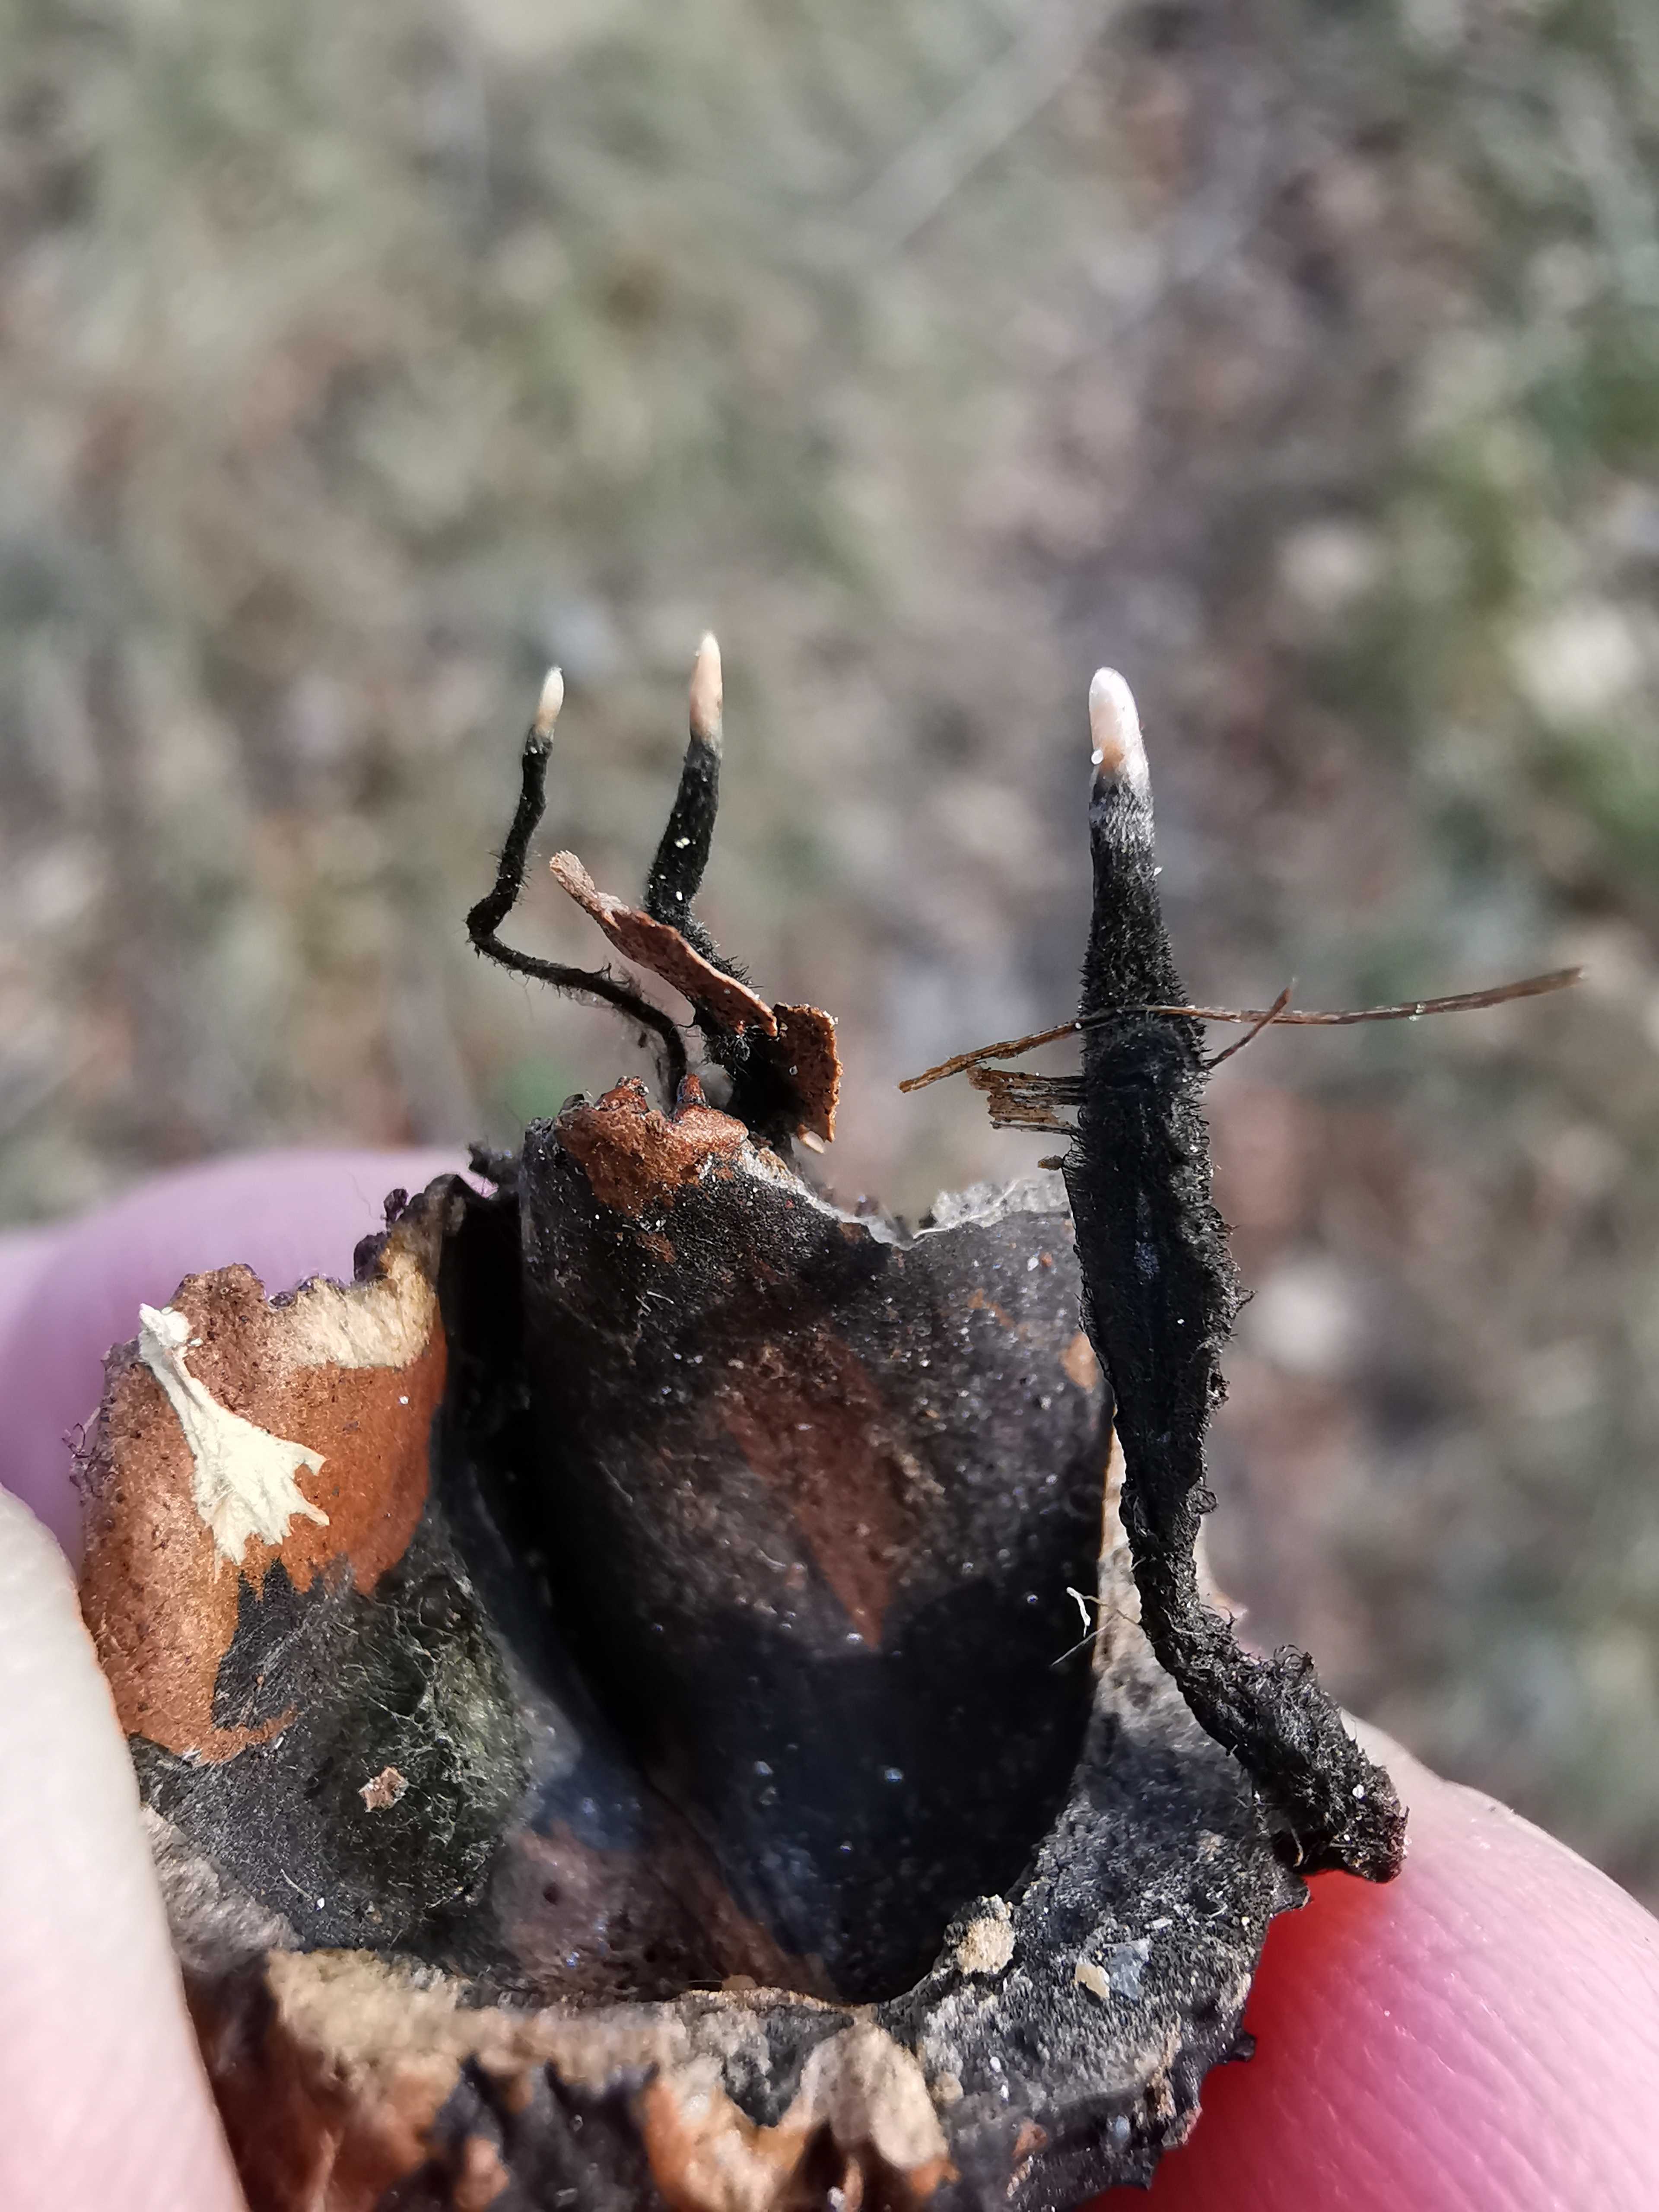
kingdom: Fungi
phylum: Ascomycota
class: Sordariomycetes
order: Xylariales
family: Xylariaceae
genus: Xylaria
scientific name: Xylaria carpophila
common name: bogskål-stødsvamp
